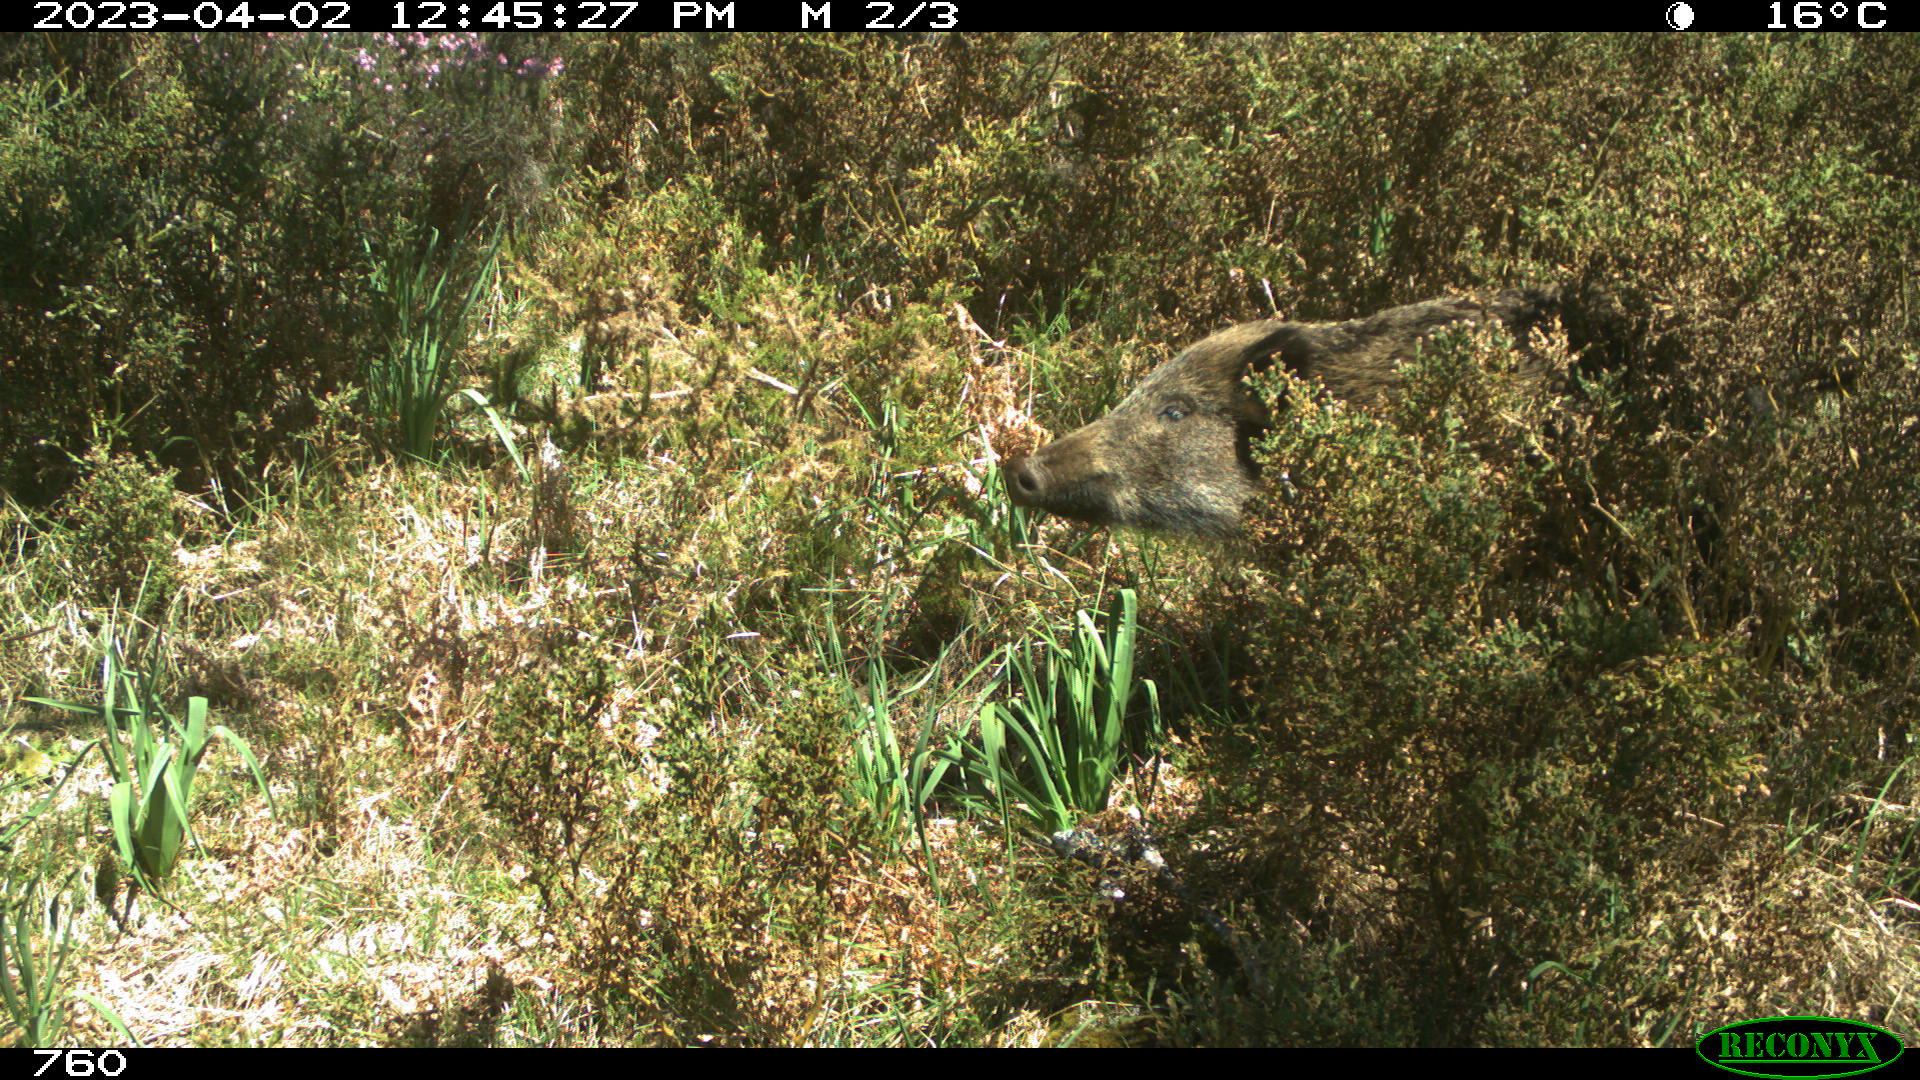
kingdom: Animalia
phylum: Chordata
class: Mammalia
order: Artiodactyla
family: Suidae
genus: Sus
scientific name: Sus scrofa
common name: Wild boar
